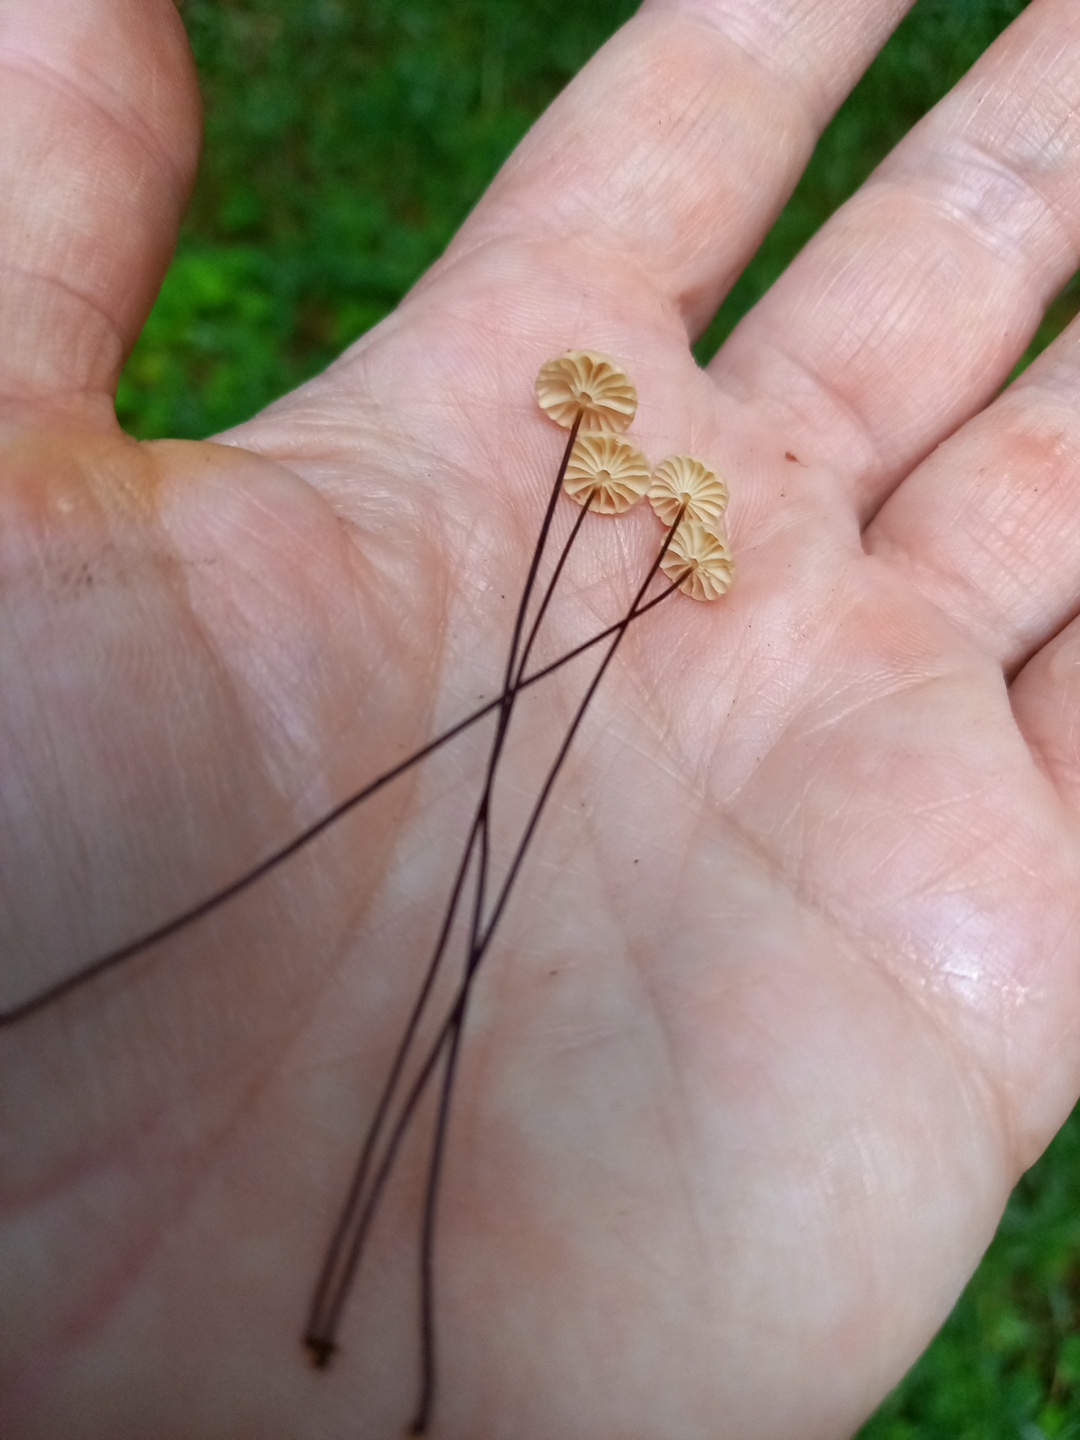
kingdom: Fungi
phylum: Basidiomycota
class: Agaricomycetes
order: Agaricales
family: Marasmiaceae
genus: Marasmius
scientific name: Marasmius wettsteinii
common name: Wettsteins bruskhat
